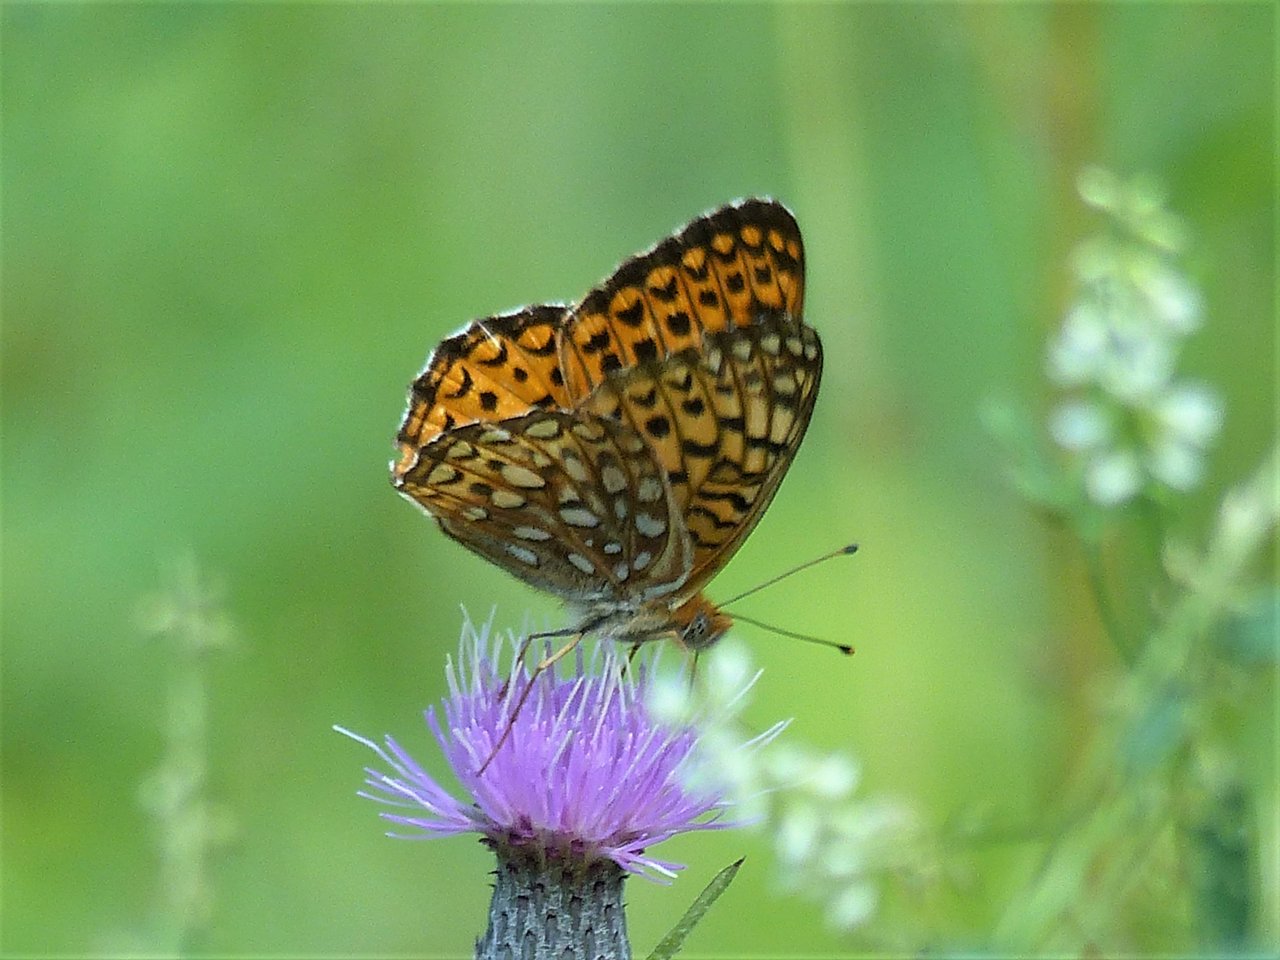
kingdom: Animalia
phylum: Arthropoda
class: Insecta
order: Lepidoptera
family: Nymphalidae
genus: Speyeria
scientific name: Speyeria atlantis
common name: Atlantis Fritillary
